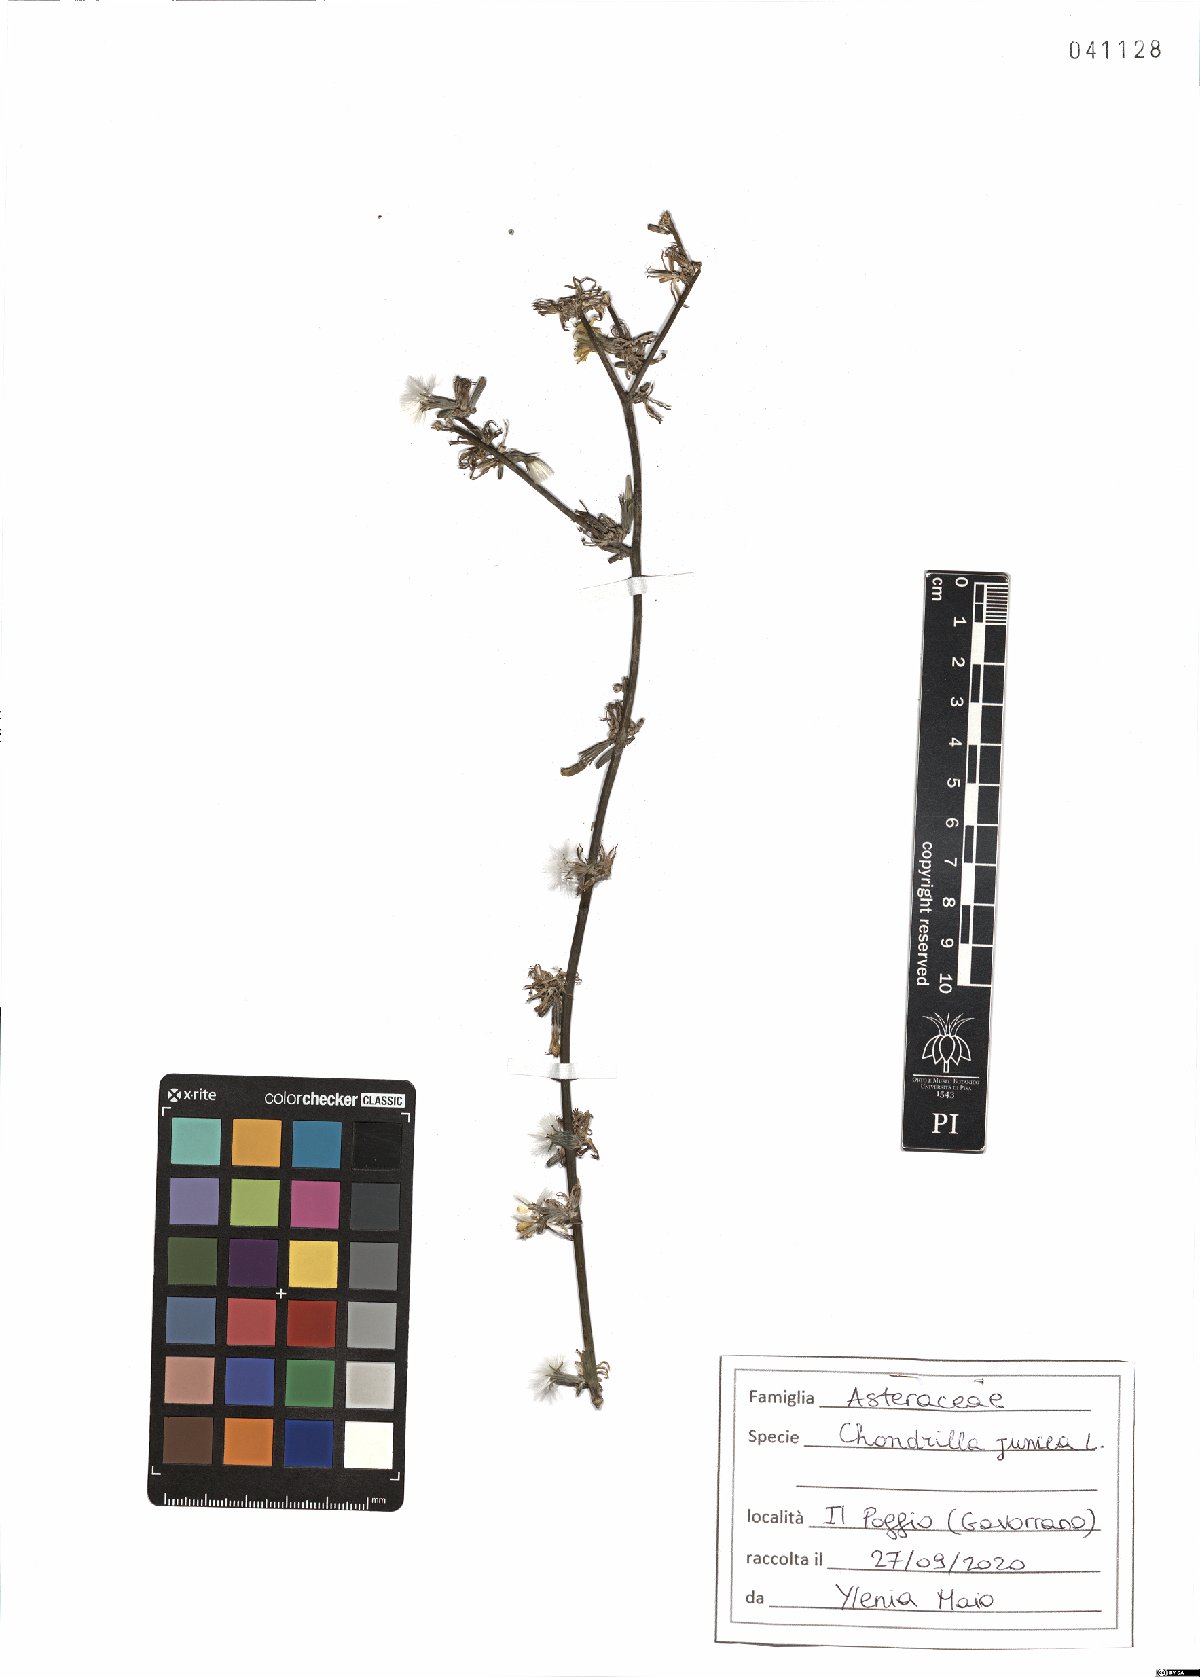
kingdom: Plantae
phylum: Tracheophyta
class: Magnoliopsida
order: Asterales
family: Asteraceae
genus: Chondrilla
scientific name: Chondrilla juncea
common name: Skeleton weed
